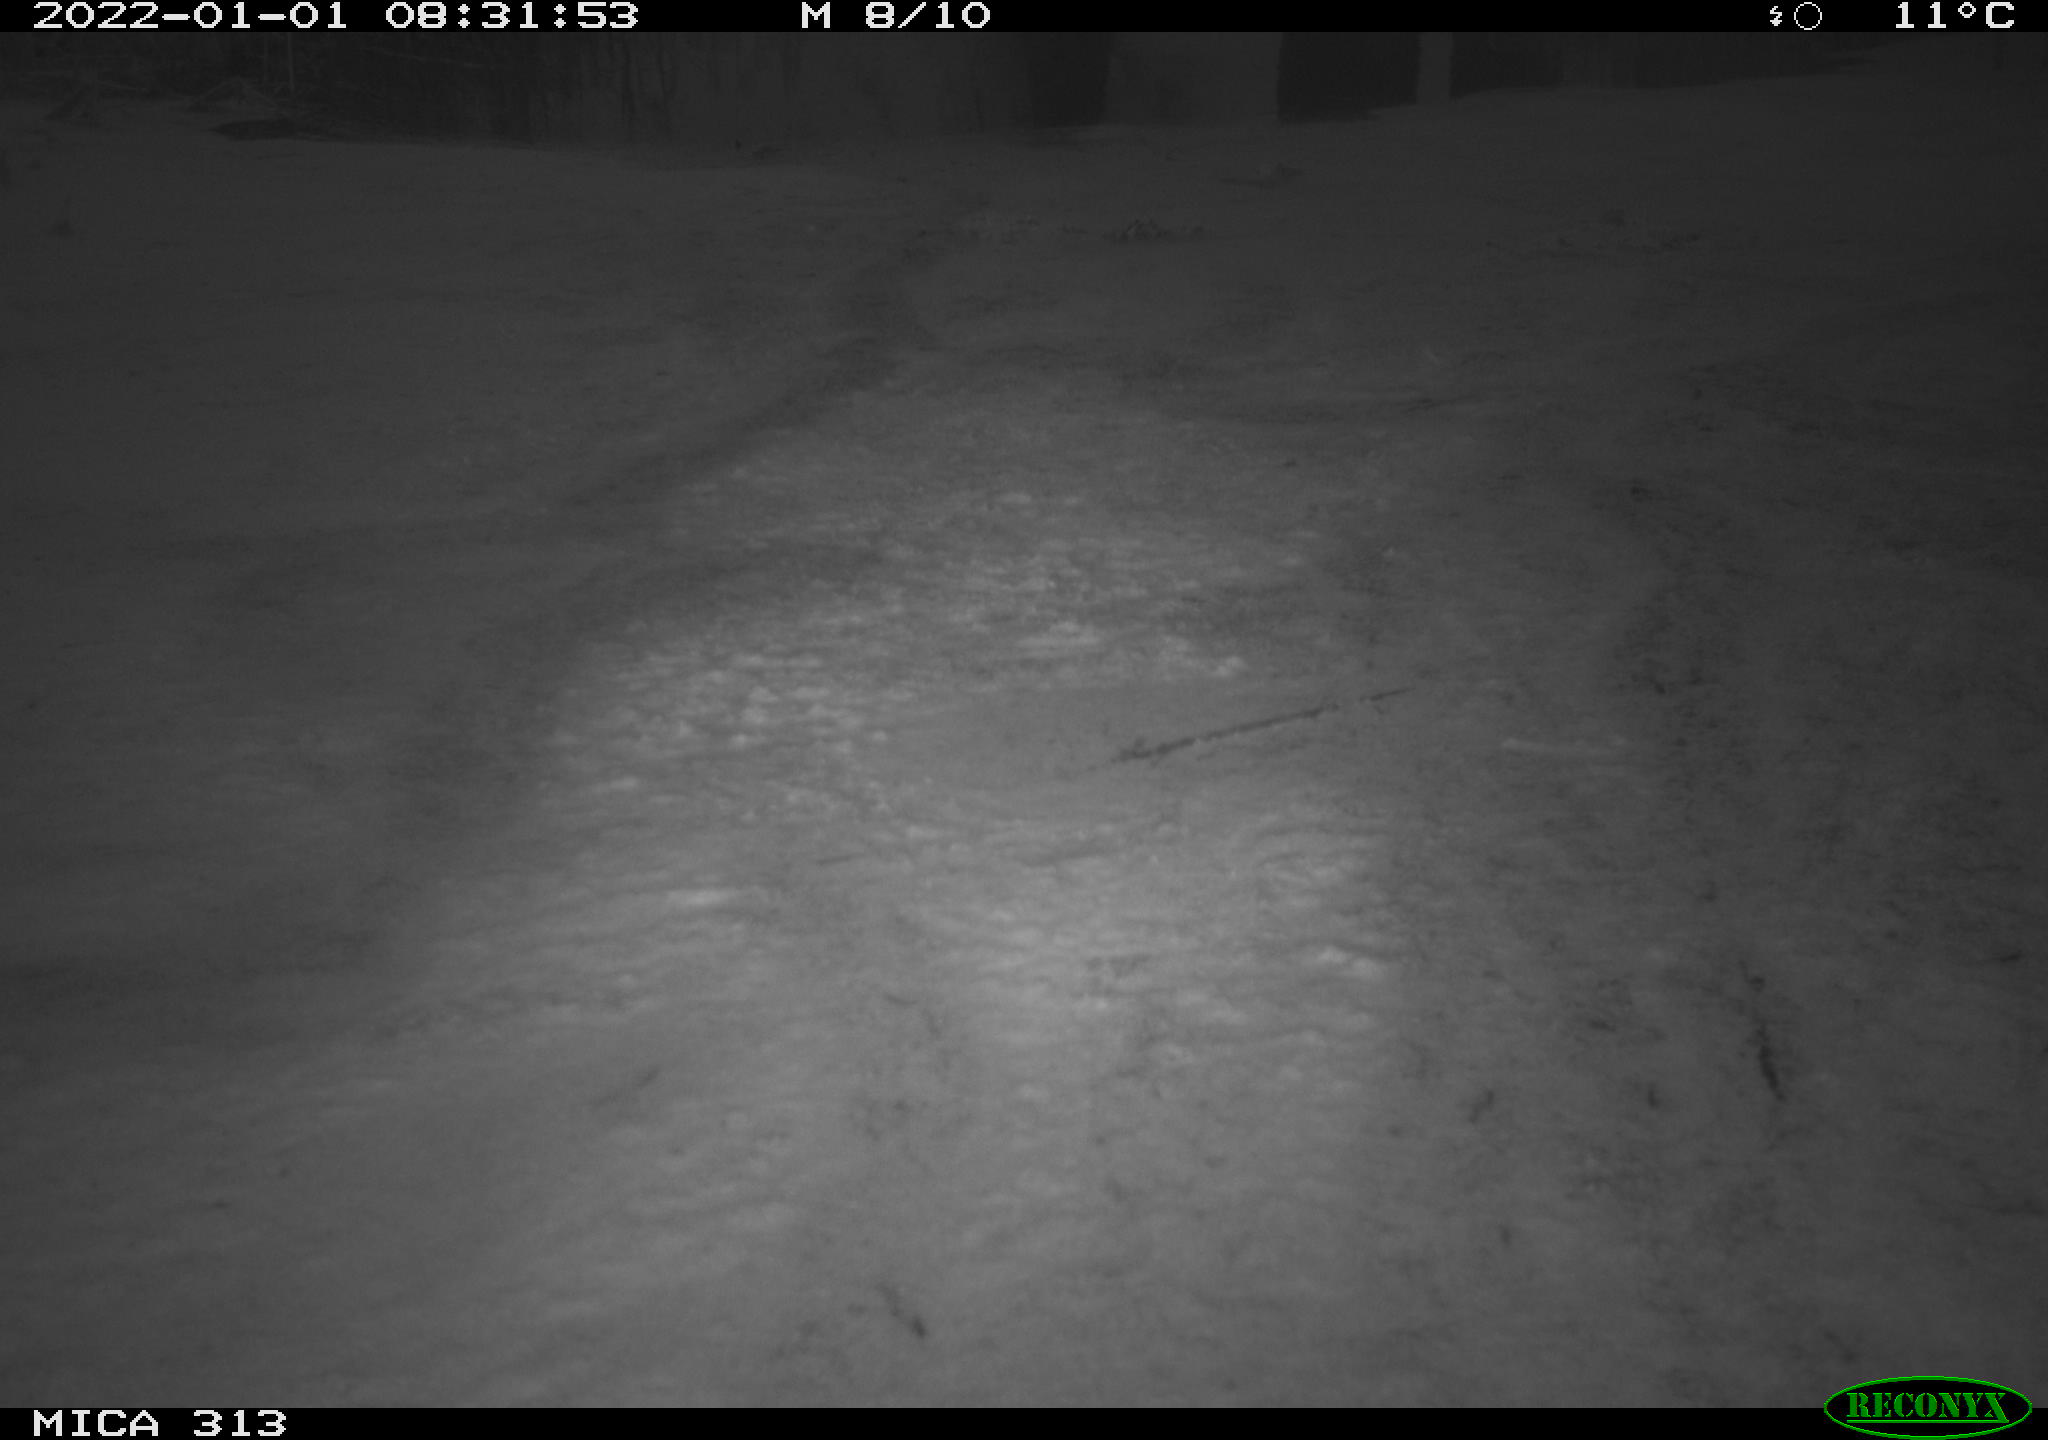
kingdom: Animalia
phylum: Chordata
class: Aves
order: Gruiformes
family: Rallidae
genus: Gallinula
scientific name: Gallinula chloropus
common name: Common moorhen
